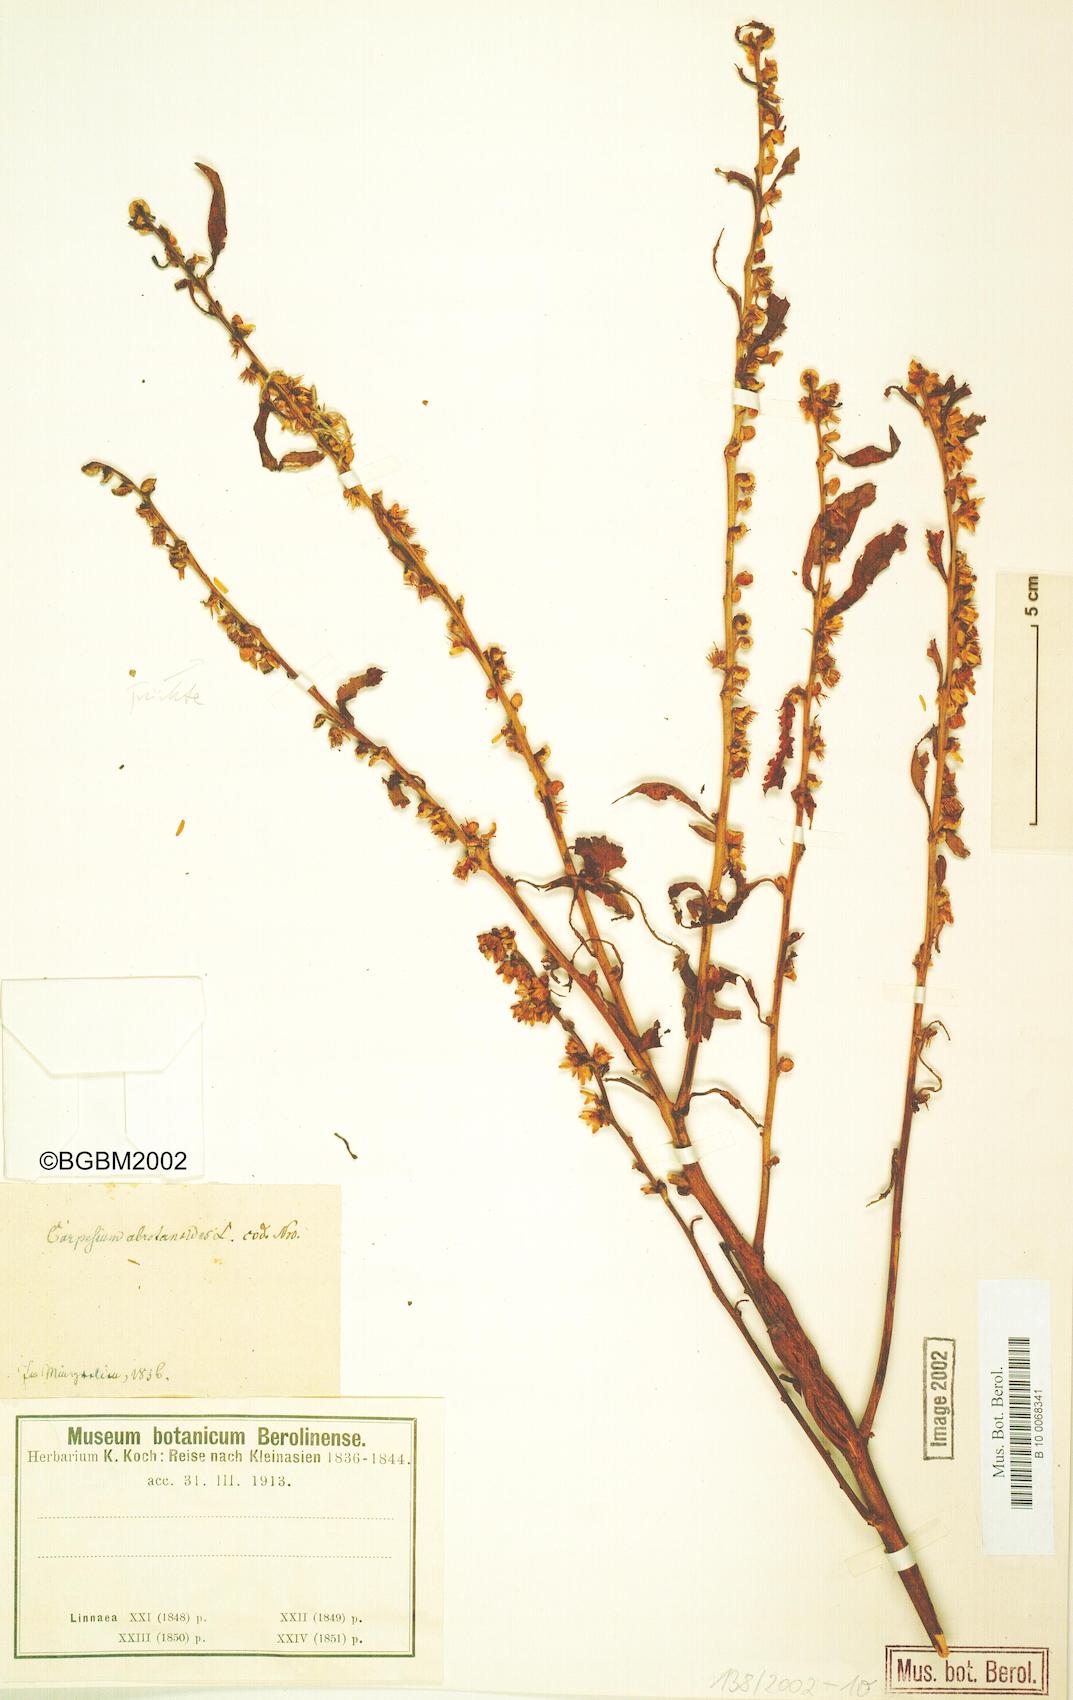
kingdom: Plantae
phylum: Tracheophyta
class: Magnoliopsida
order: Asterales
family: Asteraceae
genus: Carpesium
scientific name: Carpesium abrotanoides
